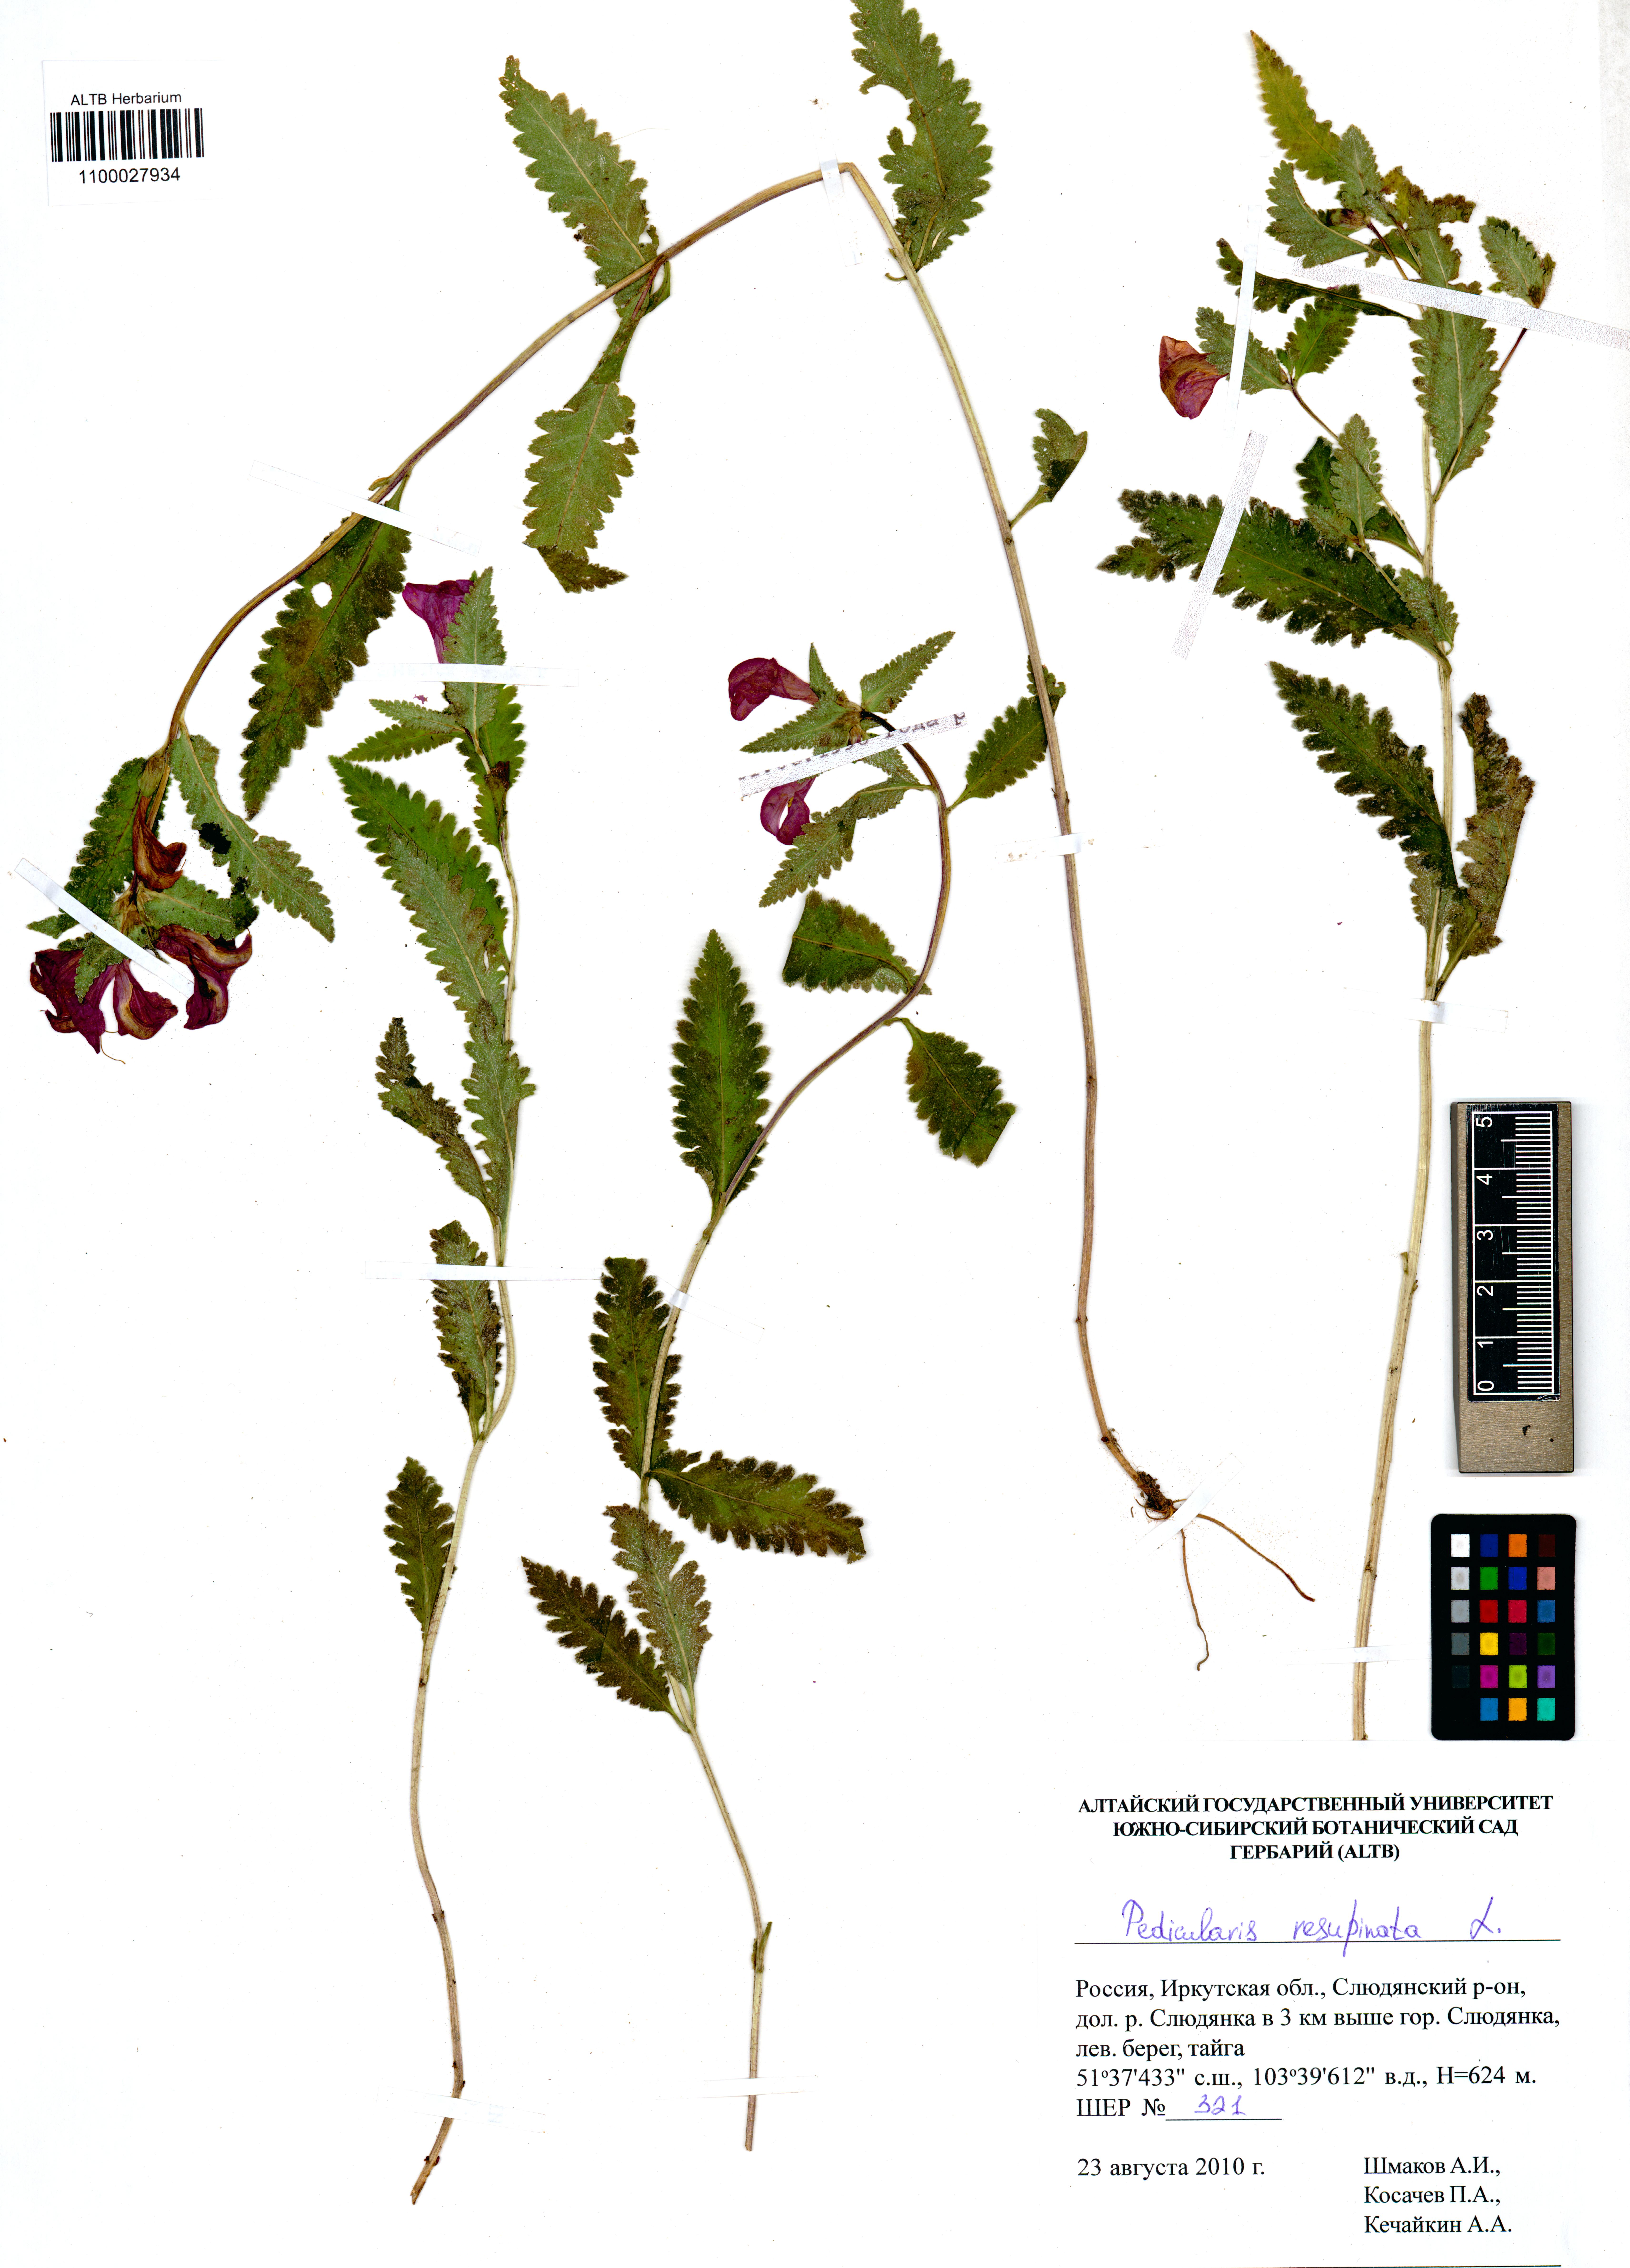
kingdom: Plantae
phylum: Tracheophyta
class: Magnoliopsida
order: Lamiales
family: Orobanchaceae
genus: Pedicularis
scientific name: Pedicularis resupinata
